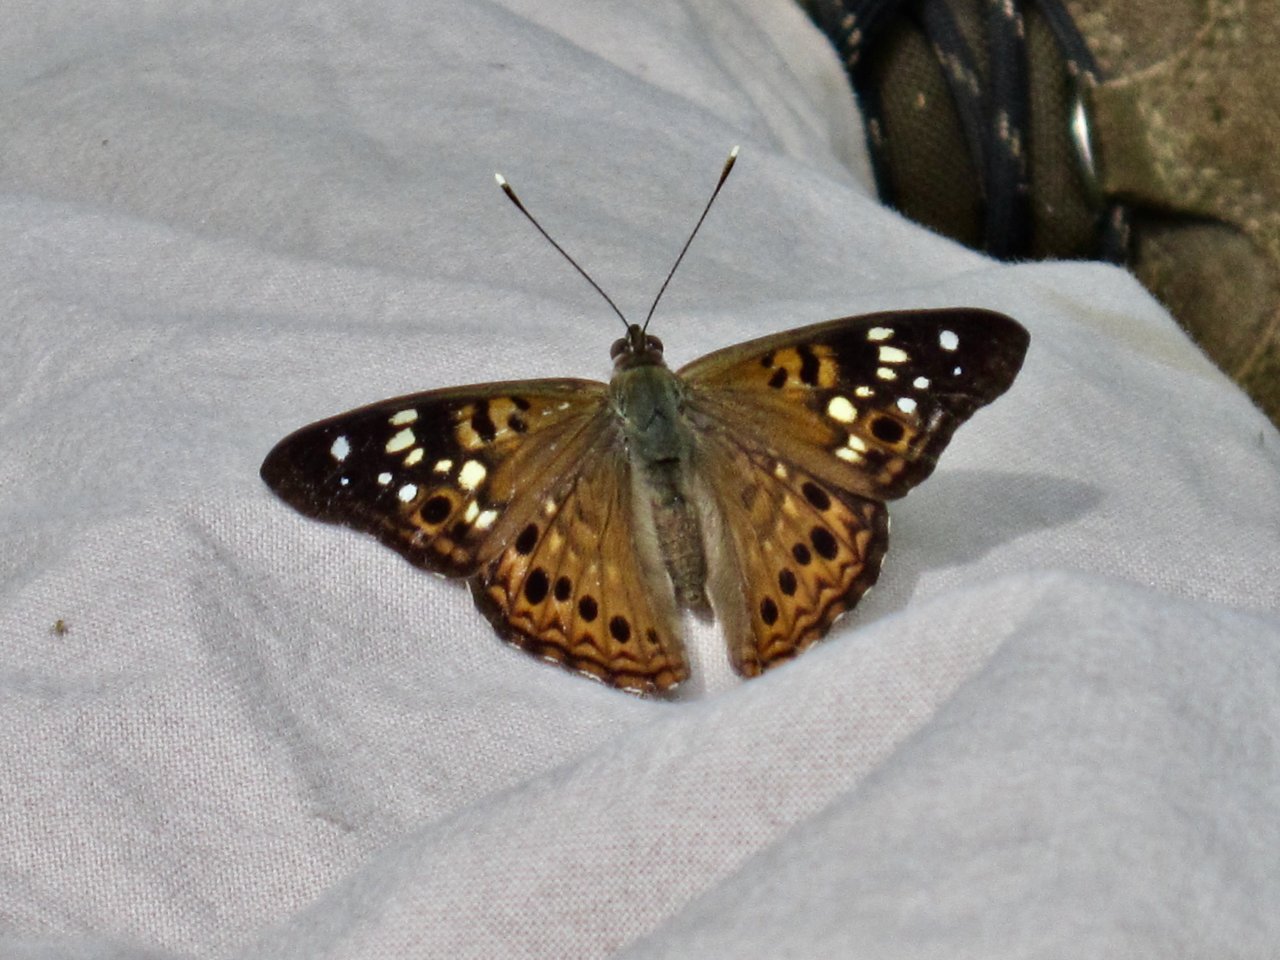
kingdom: Animalia
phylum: Arthropoda
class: Insecta
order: Lepidoptera
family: Nymphalidae
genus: Asterocampa
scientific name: Asterocampa celtis
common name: Hackberry Emperor
